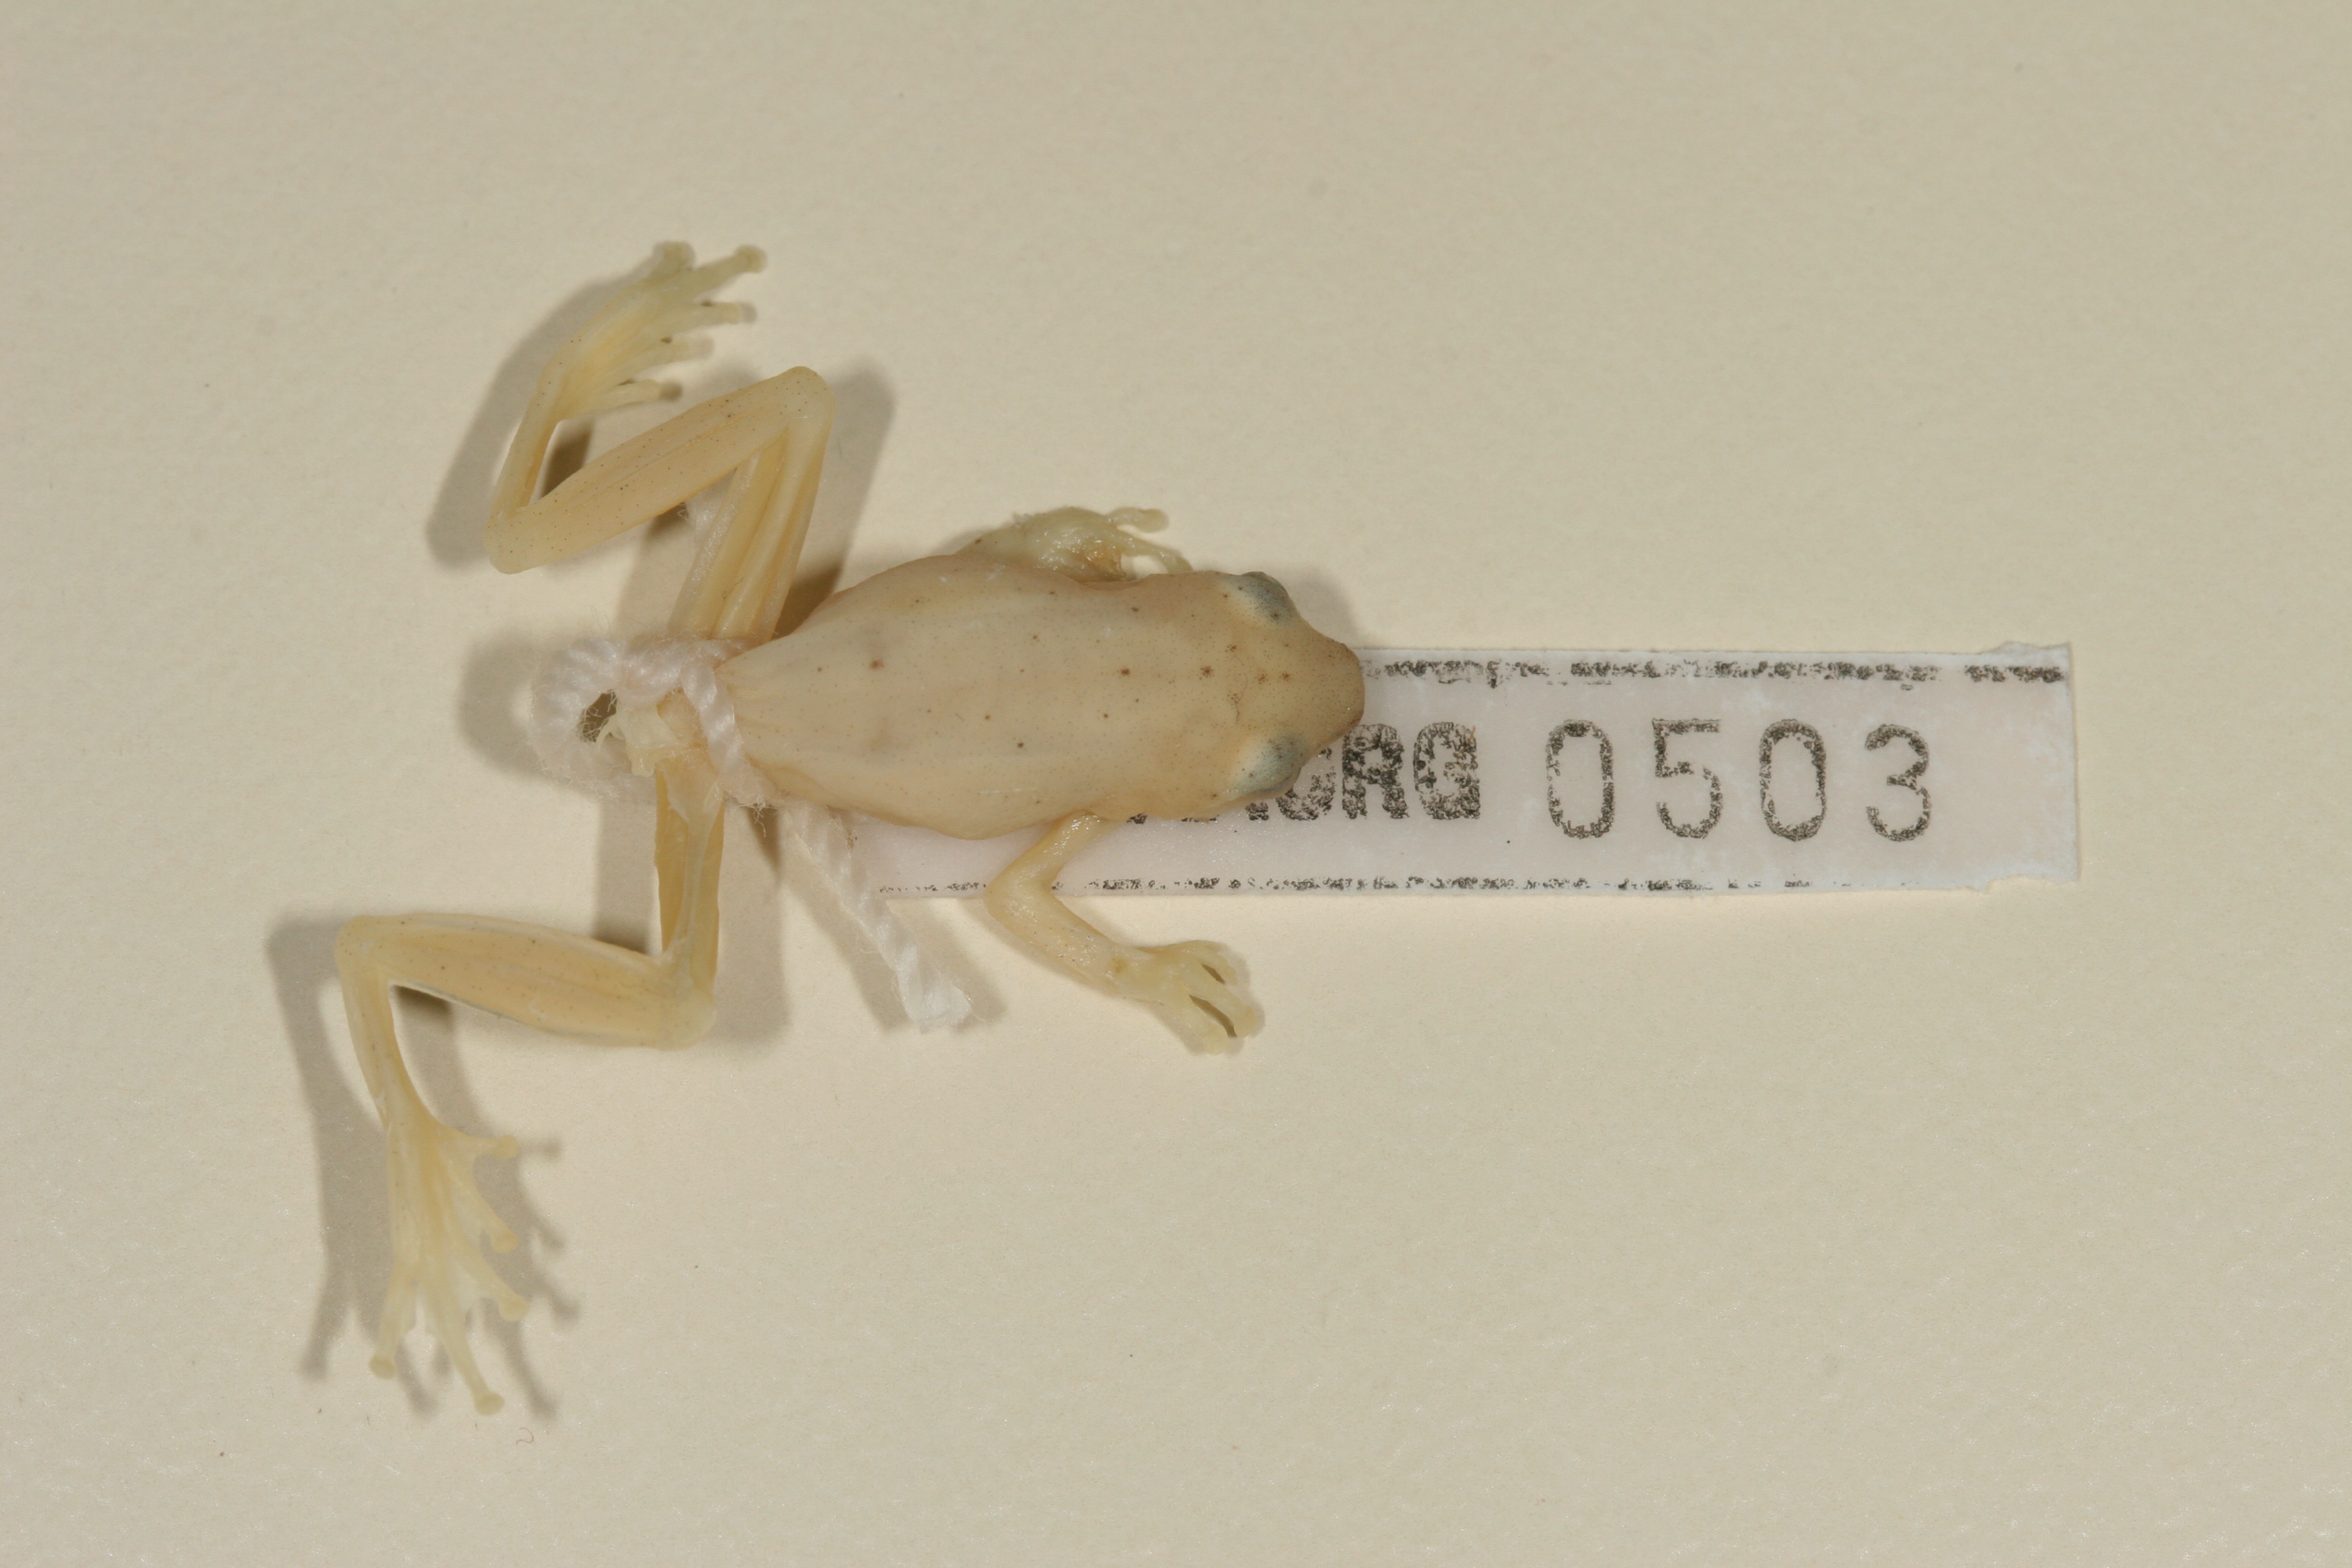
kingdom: Animalia
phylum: Chordata
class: Amphibia
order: Anura
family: Hyperoliidae
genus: Hyperolius
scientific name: Hyperolius pusillus
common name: Water lily reed frog
